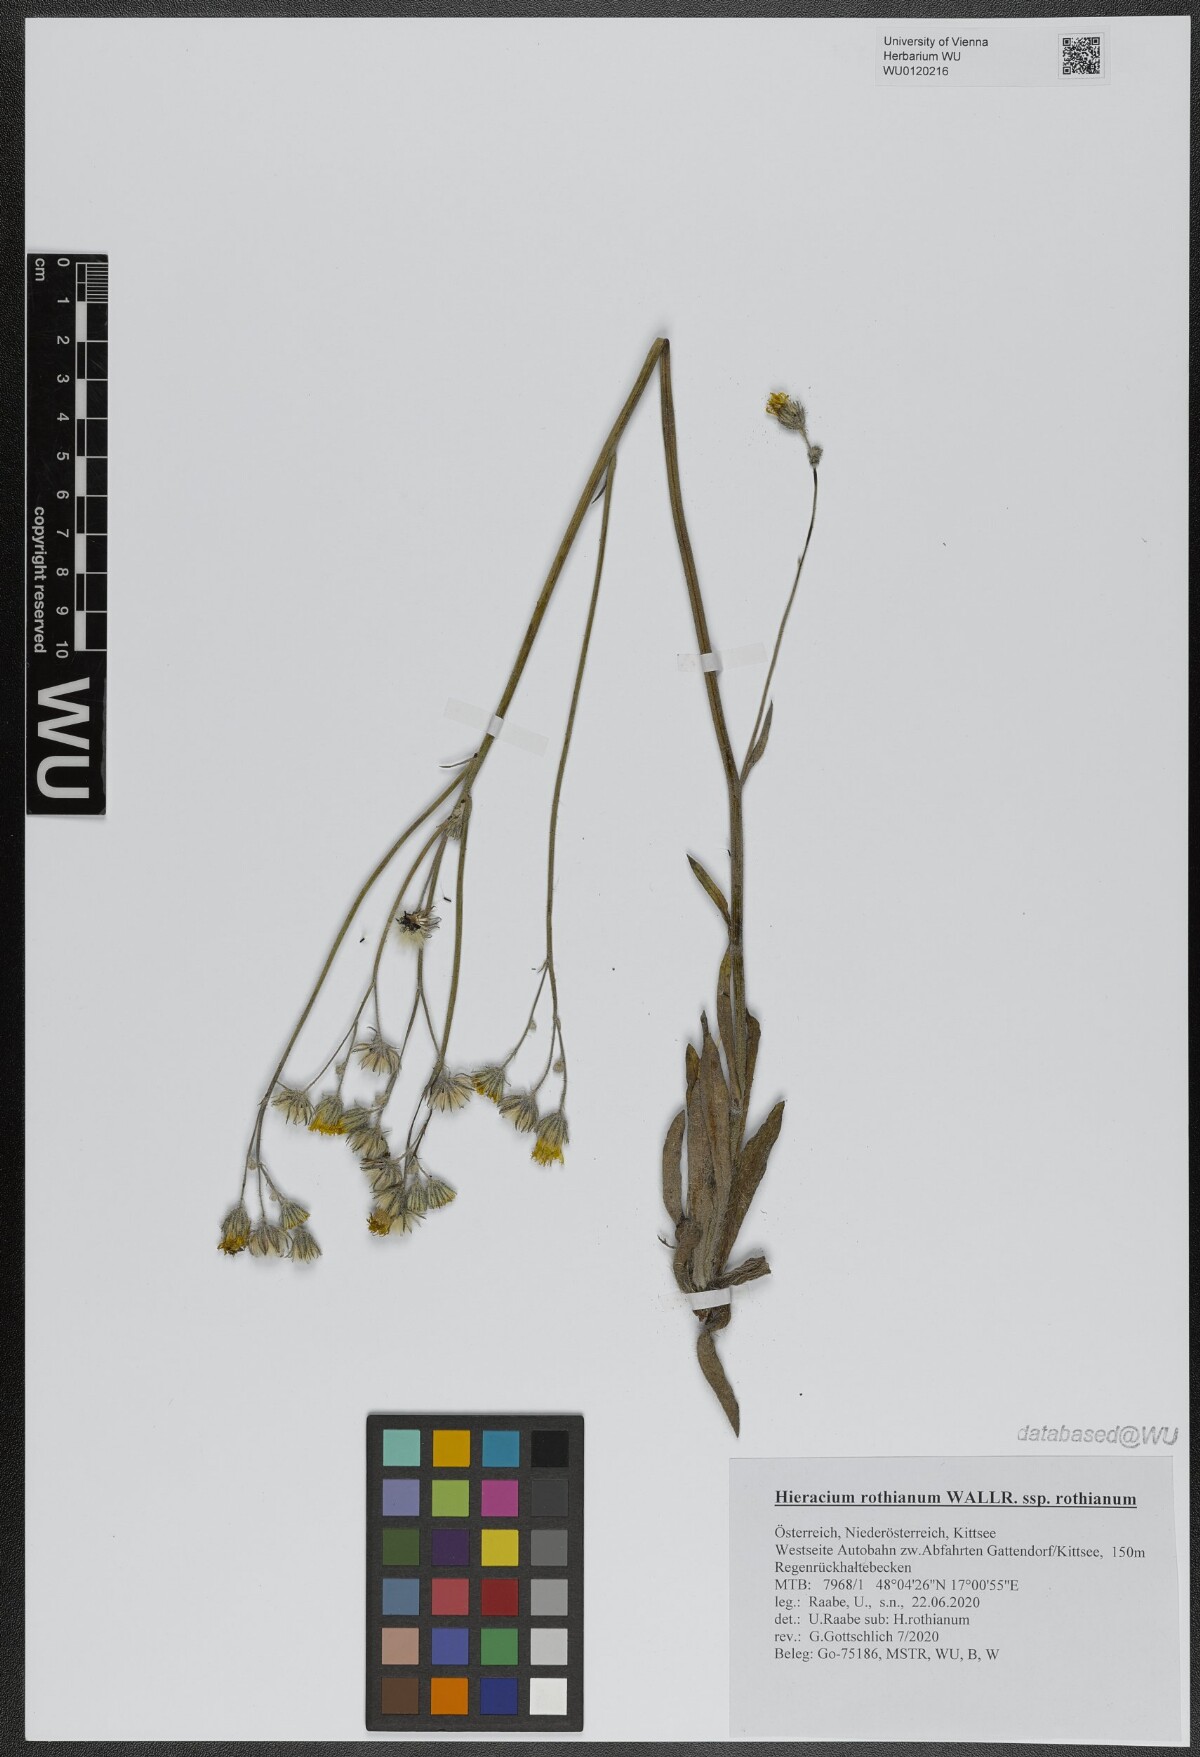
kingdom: Plantae
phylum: Tracheophyta
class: Magnoliopsida
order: Asterales
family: Asteraceae
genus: Pilosella
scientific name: Pilosella rothiana
